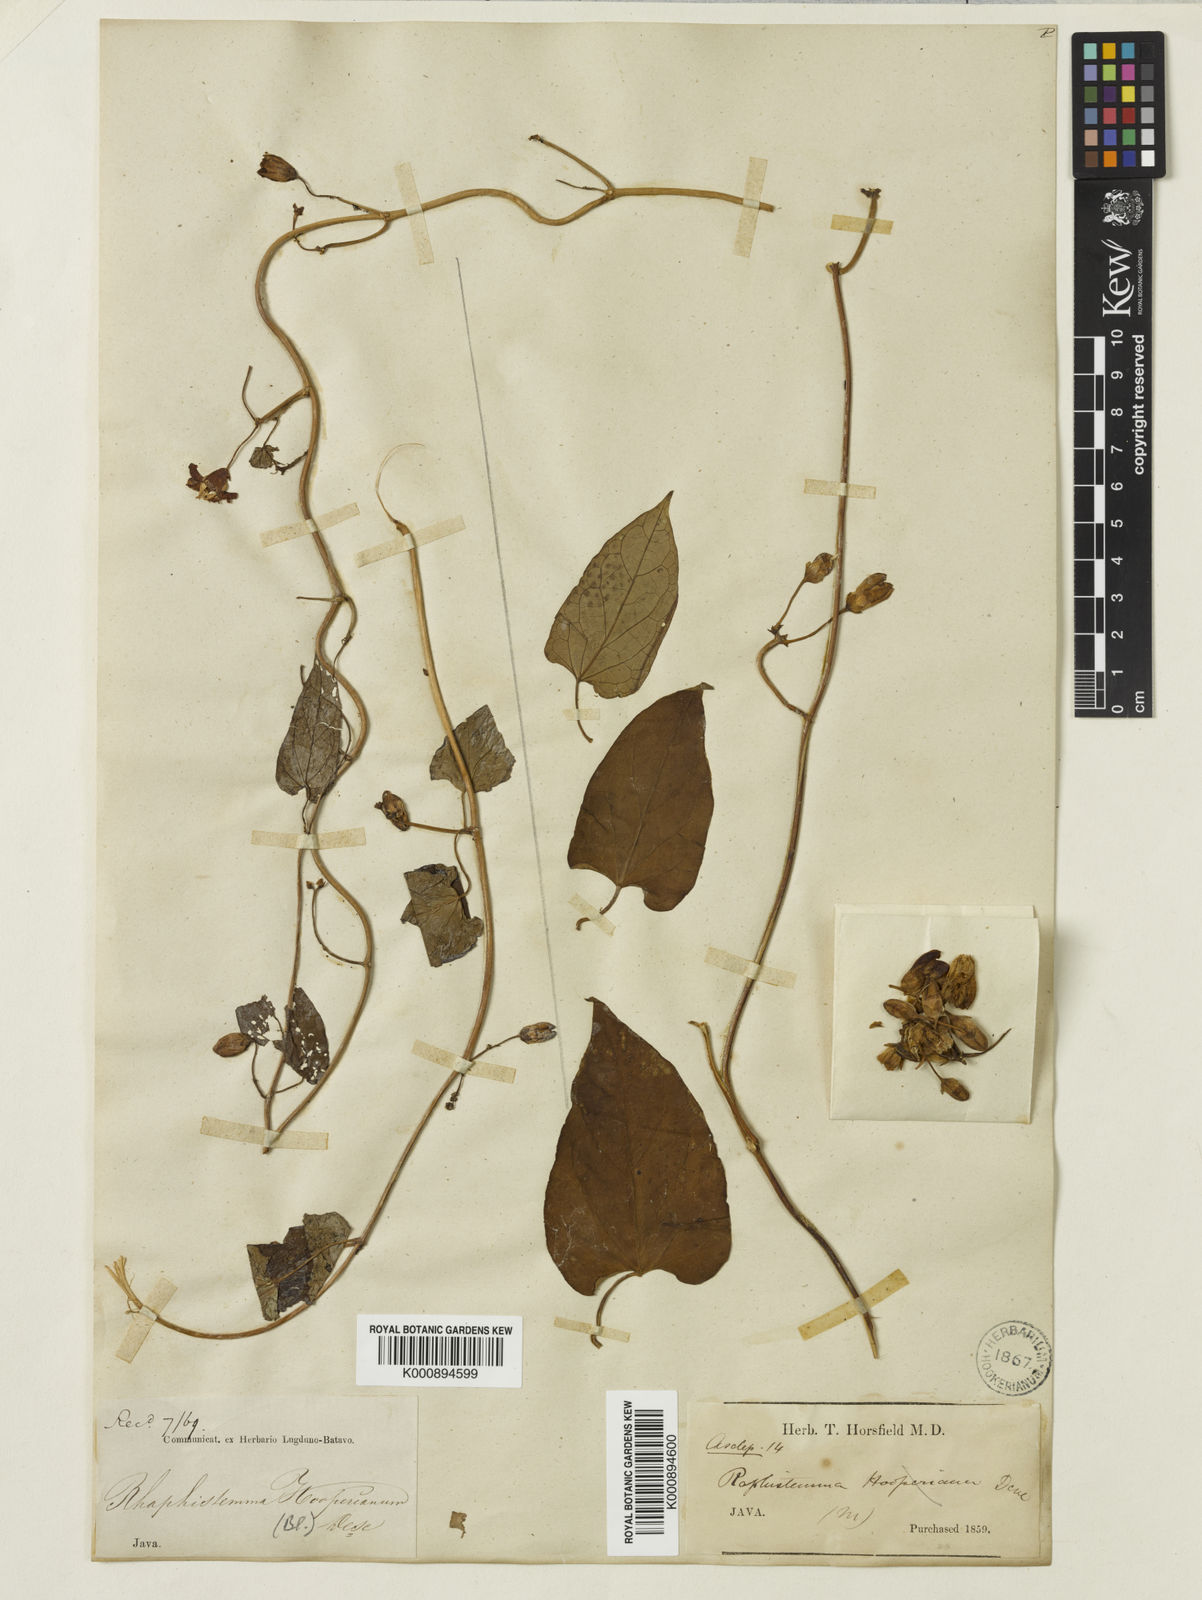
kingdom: Plantae
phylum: Tracheophyta
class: Magnoliopsida
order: Gentianales
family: Apocynaceae
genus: Cynanchum
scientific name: Cynanchum hooperianum
